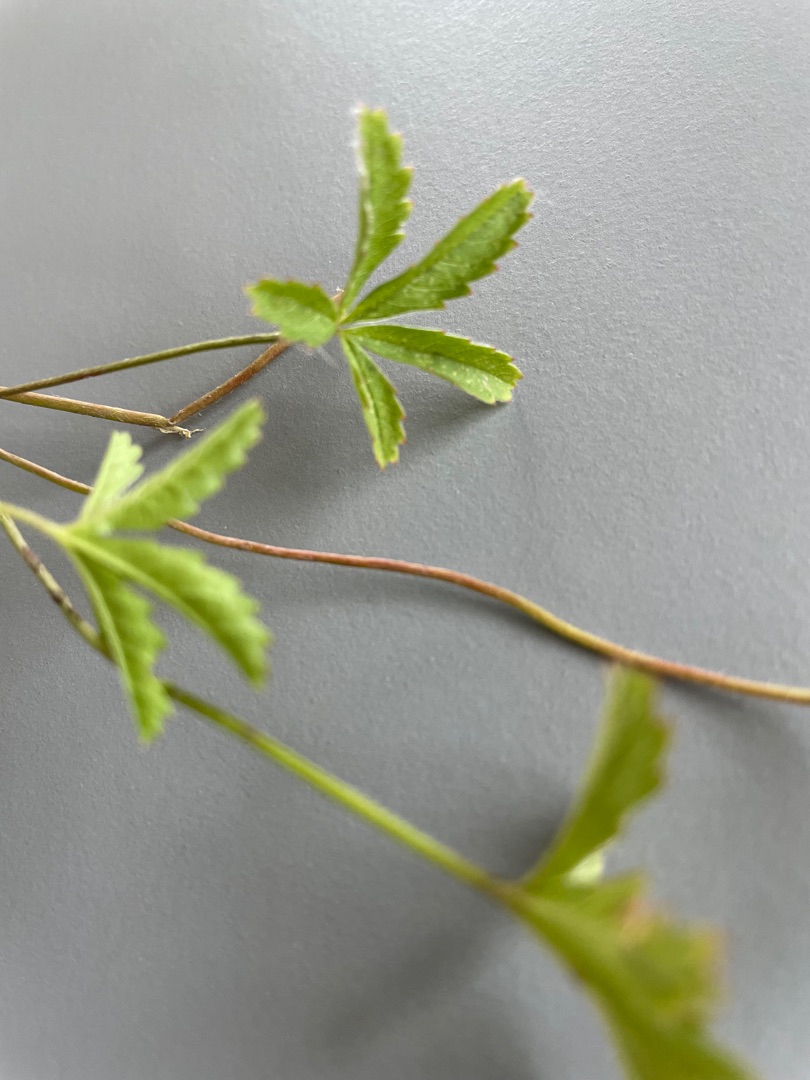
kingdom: Plantae
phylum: Tracheophyta
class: Magnoliopsida
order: Rosales
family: Rosaceae
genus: Potentilla
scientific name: Potentilla reptans
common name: Krybende potentil
